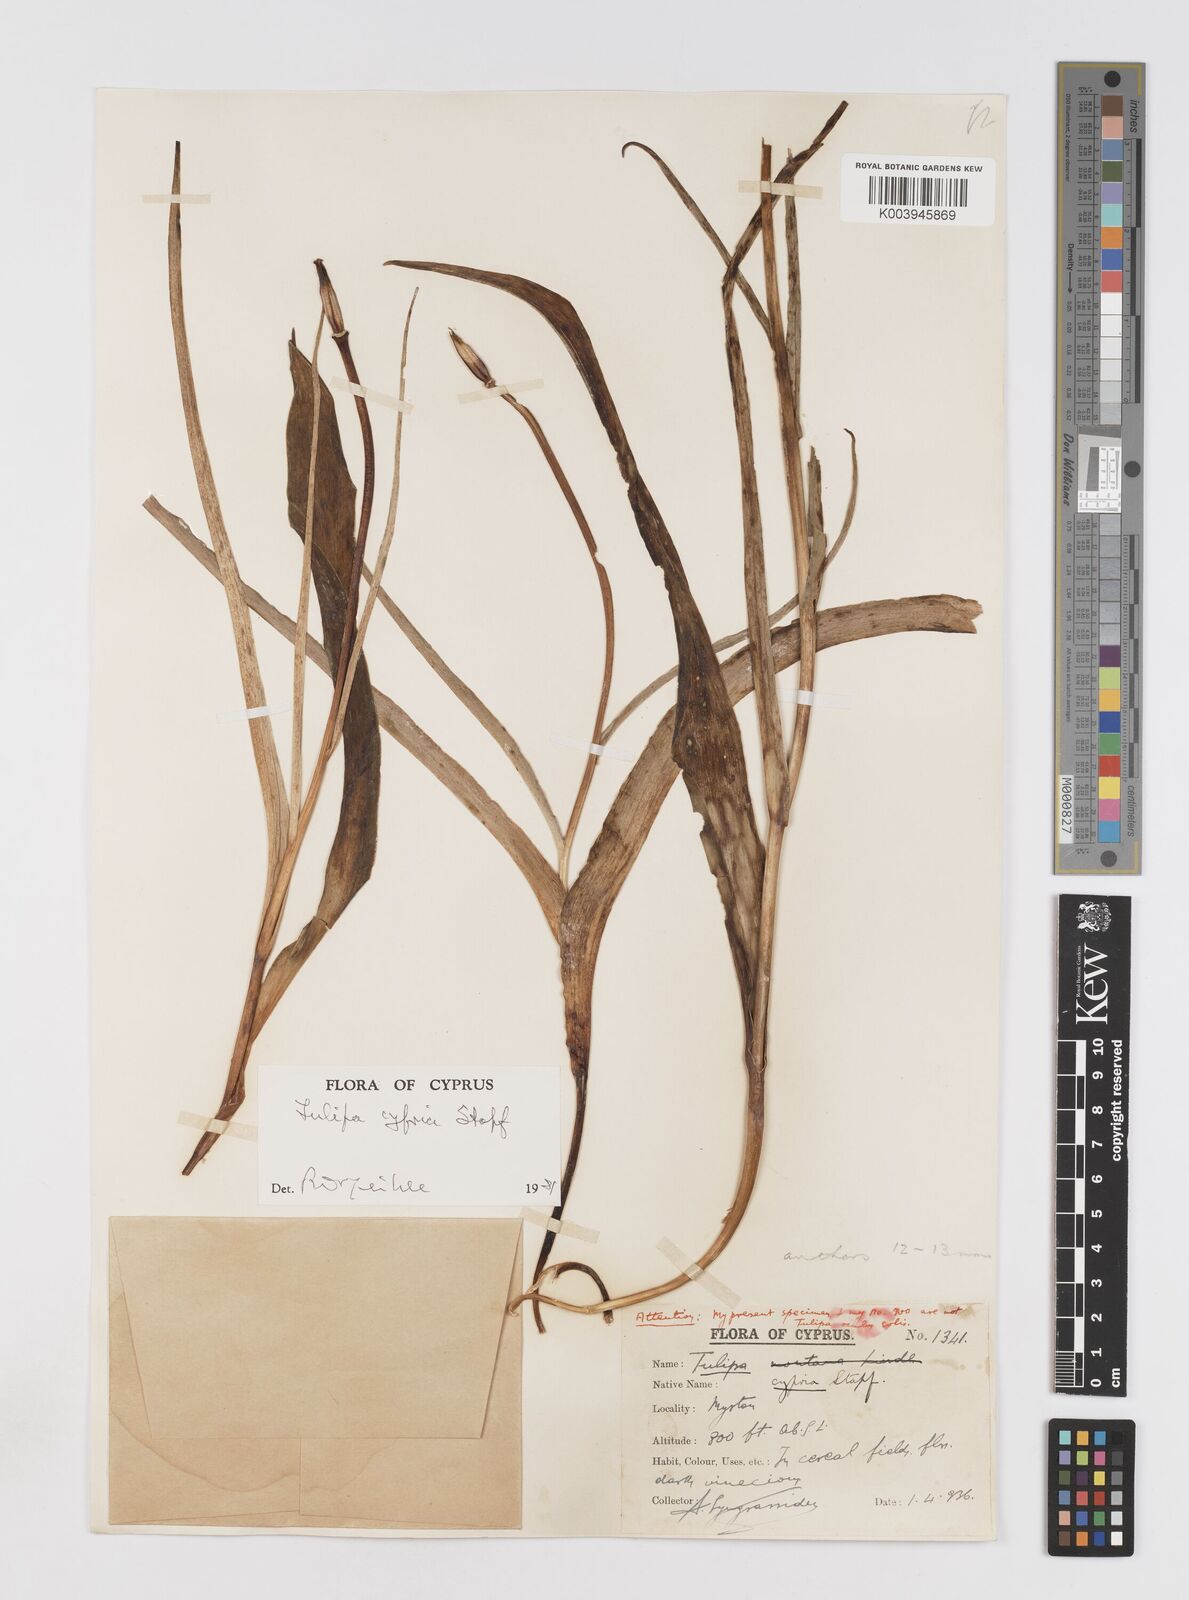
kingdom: Plantae
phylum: Tracheophyta
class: Liliopsida
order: Liliales
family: Liliaceae
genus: Tulipa
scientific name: Tulipa cypria
